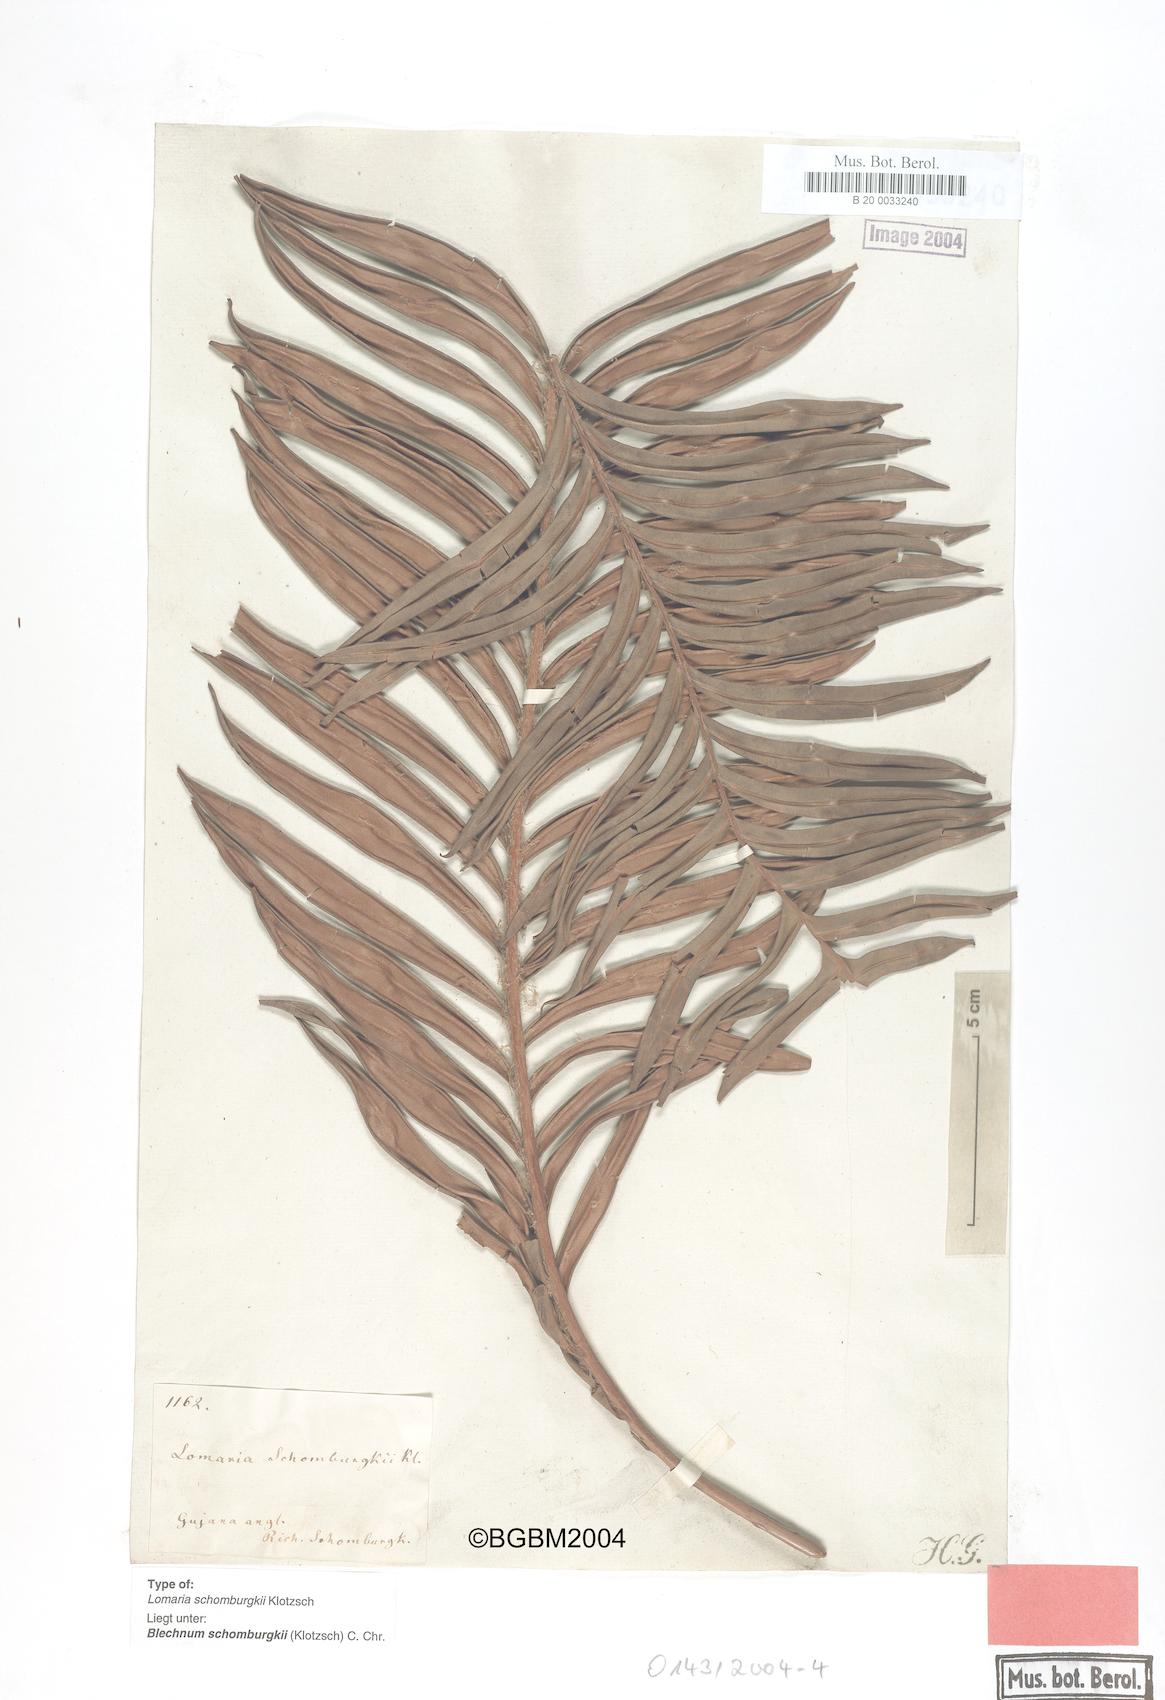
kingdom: Plantae
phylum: Tracheophyta
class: Polypodiopsida
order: Polypodiales
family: Blechnaceae
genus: Lomariocycas
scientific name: Lomariocycas schomburgkii
